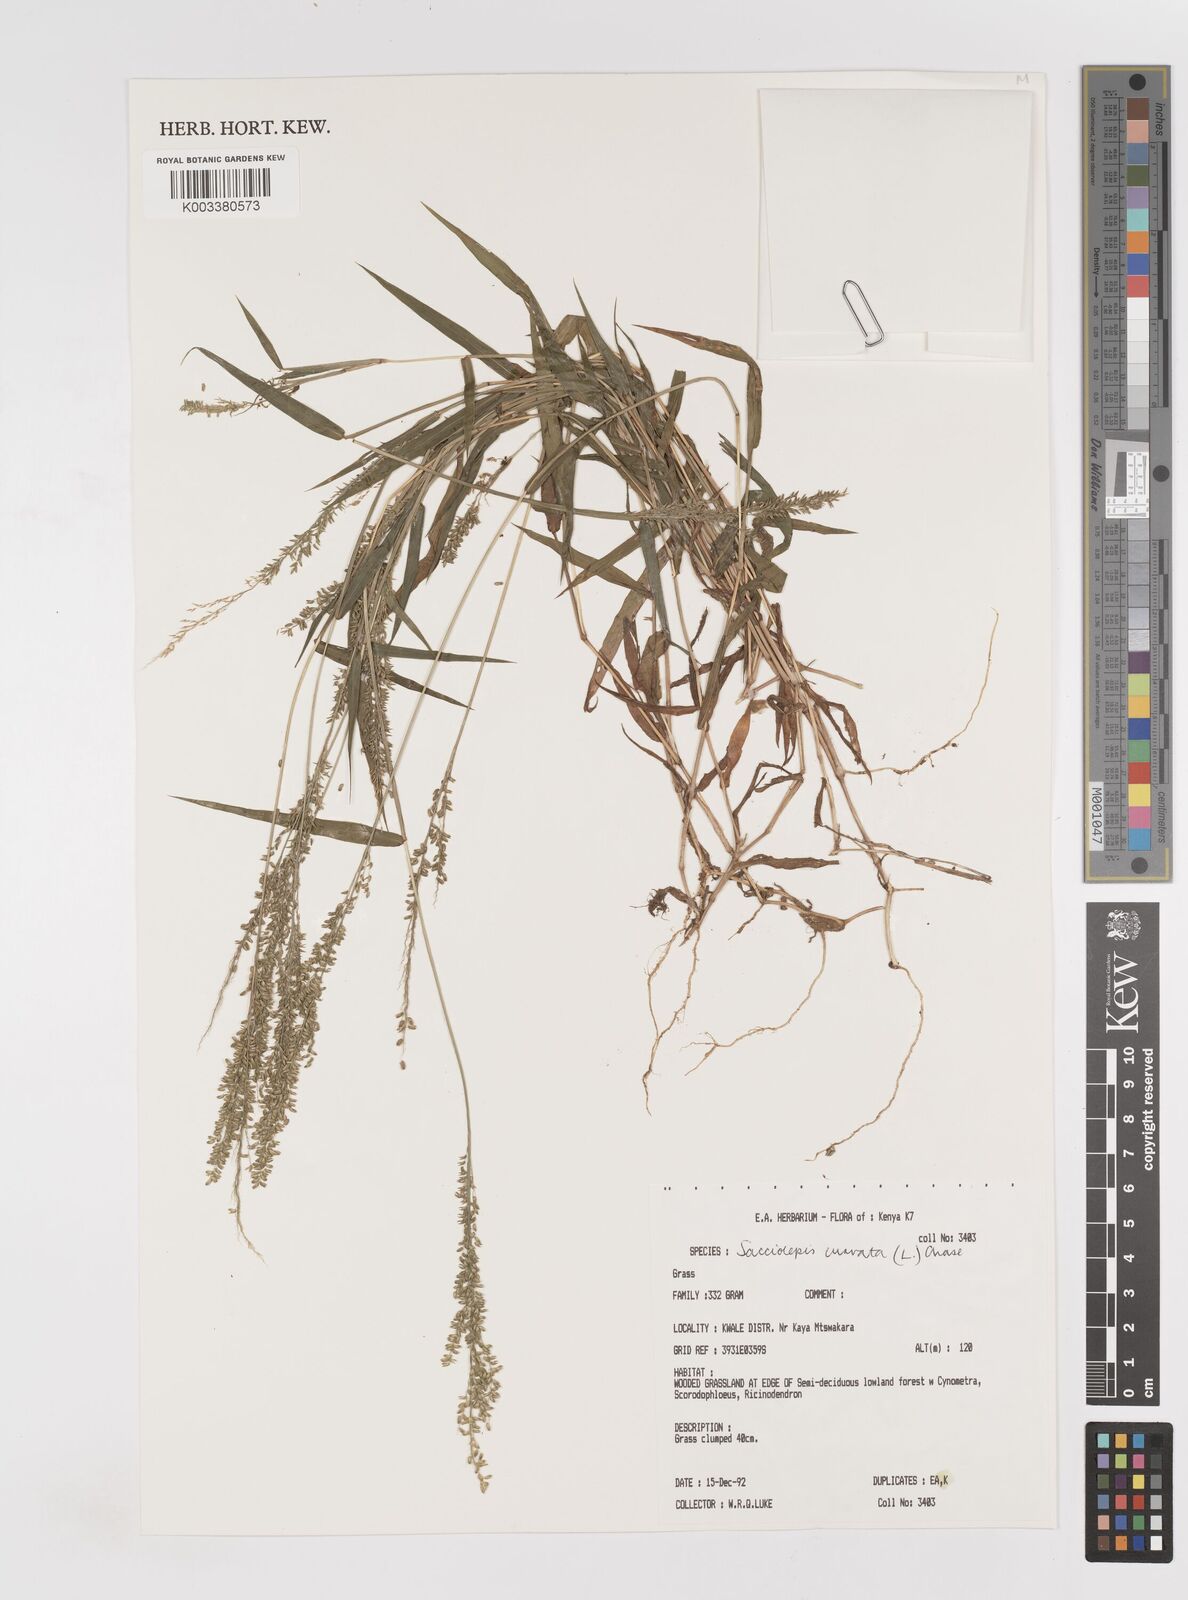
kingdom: Plantae
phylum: Tracheophyta
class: Liliopsida
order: Poales
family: Poaceae
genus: Sacciolepis
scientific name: Sacciolepis curvata
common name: Forest hood grass
